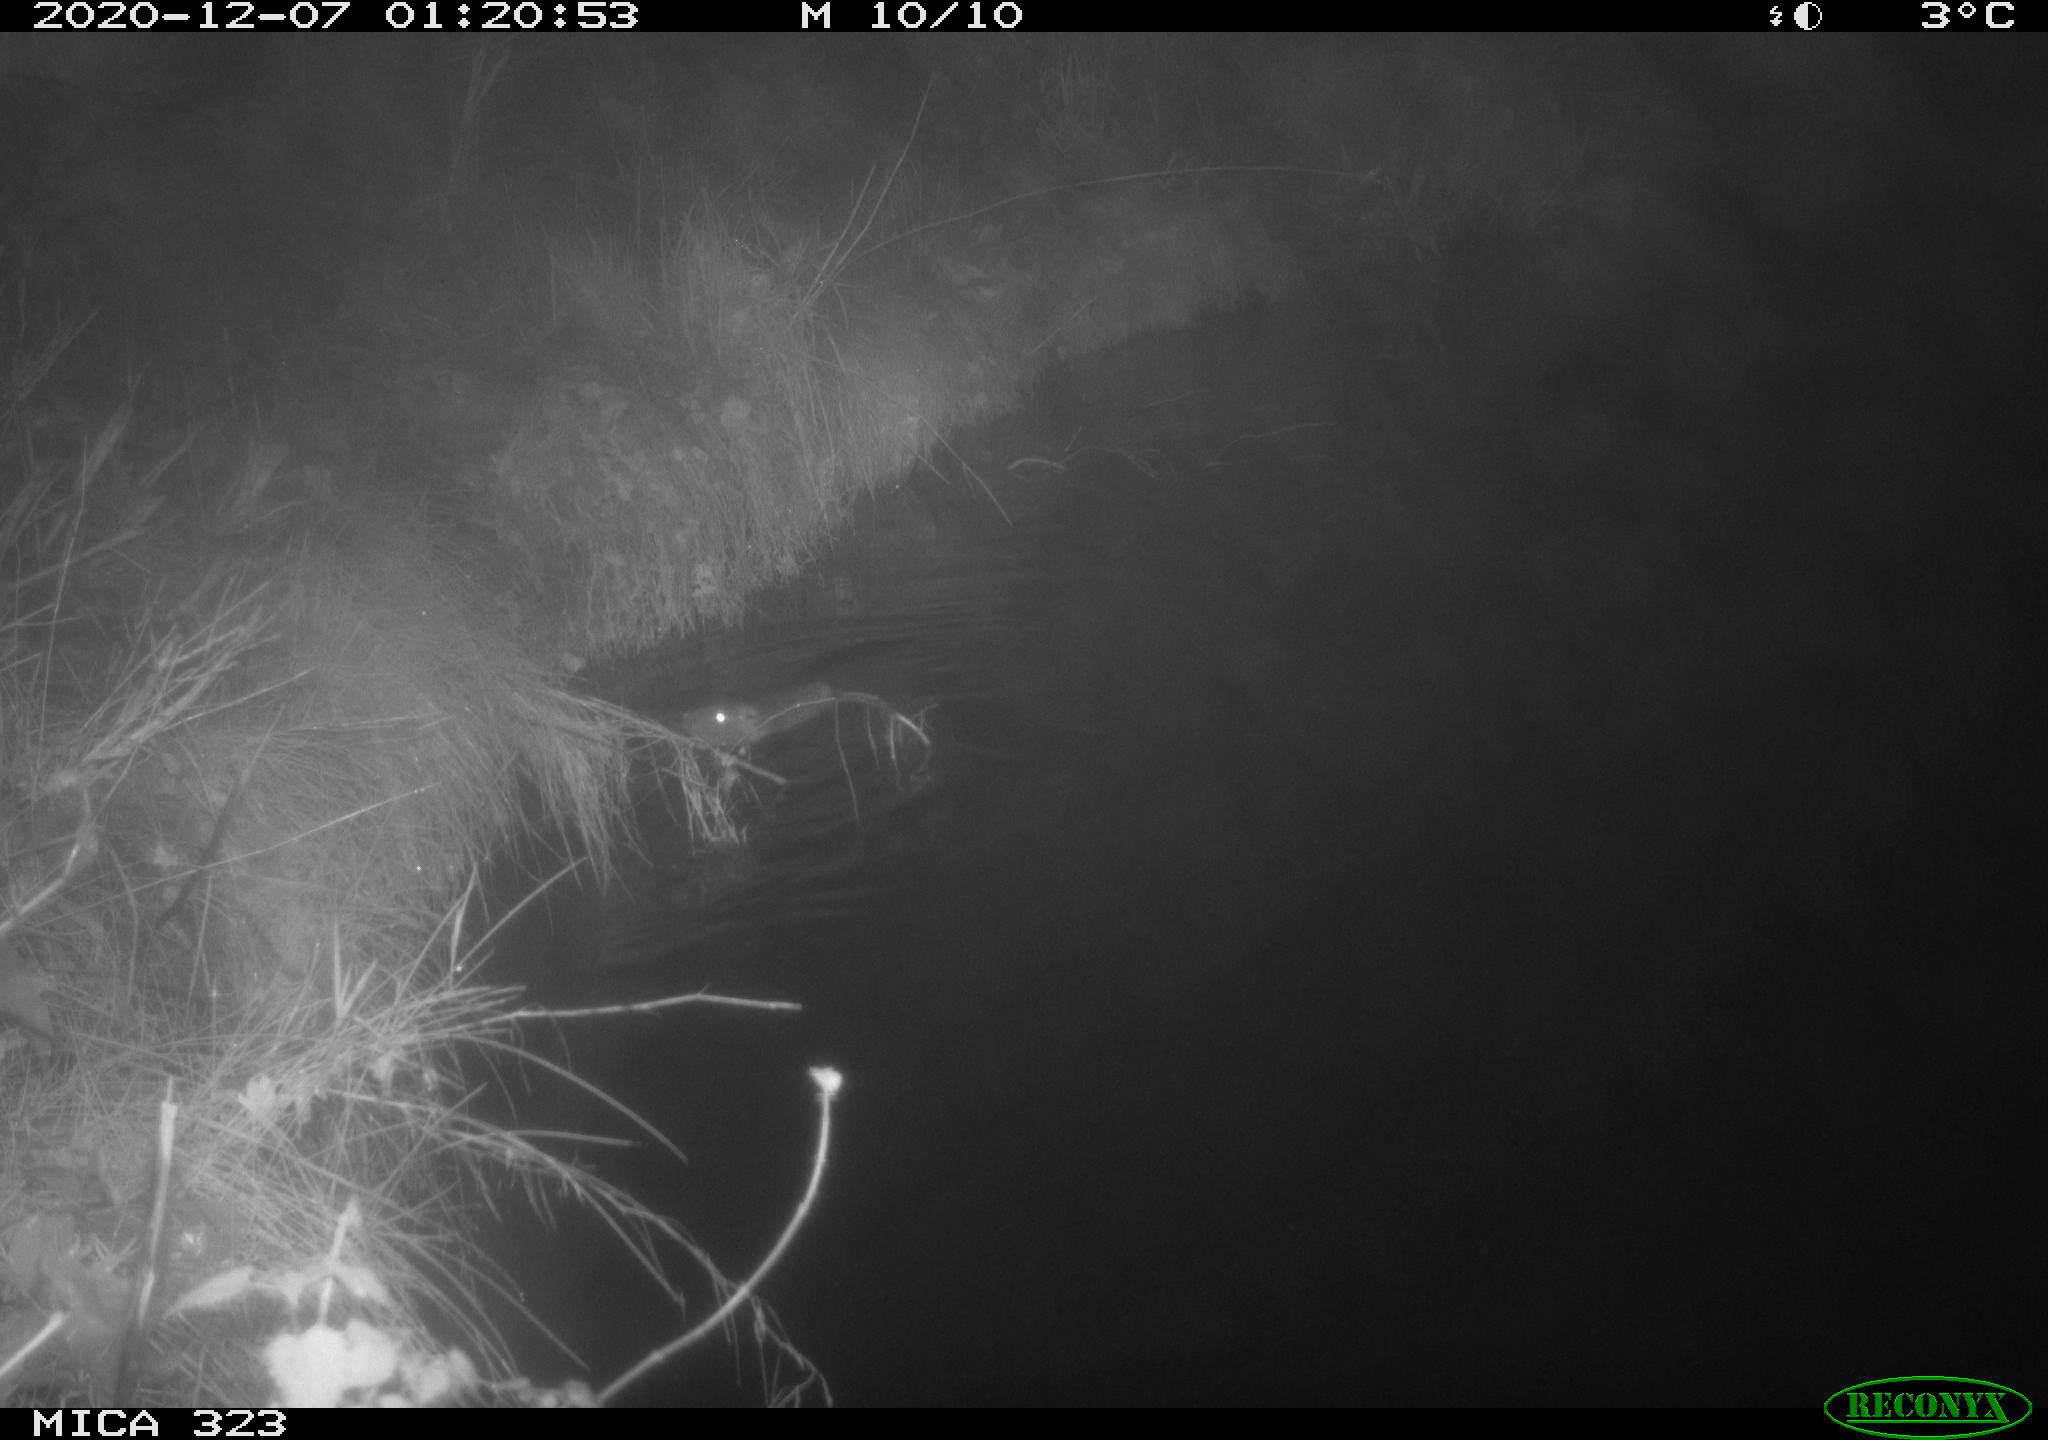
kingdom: Animalia
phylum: Chordata
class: Mammalia
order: Rodentia
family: Myocastoridae
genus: Myocastor
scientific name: Myocastor coypus
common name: Coypu
